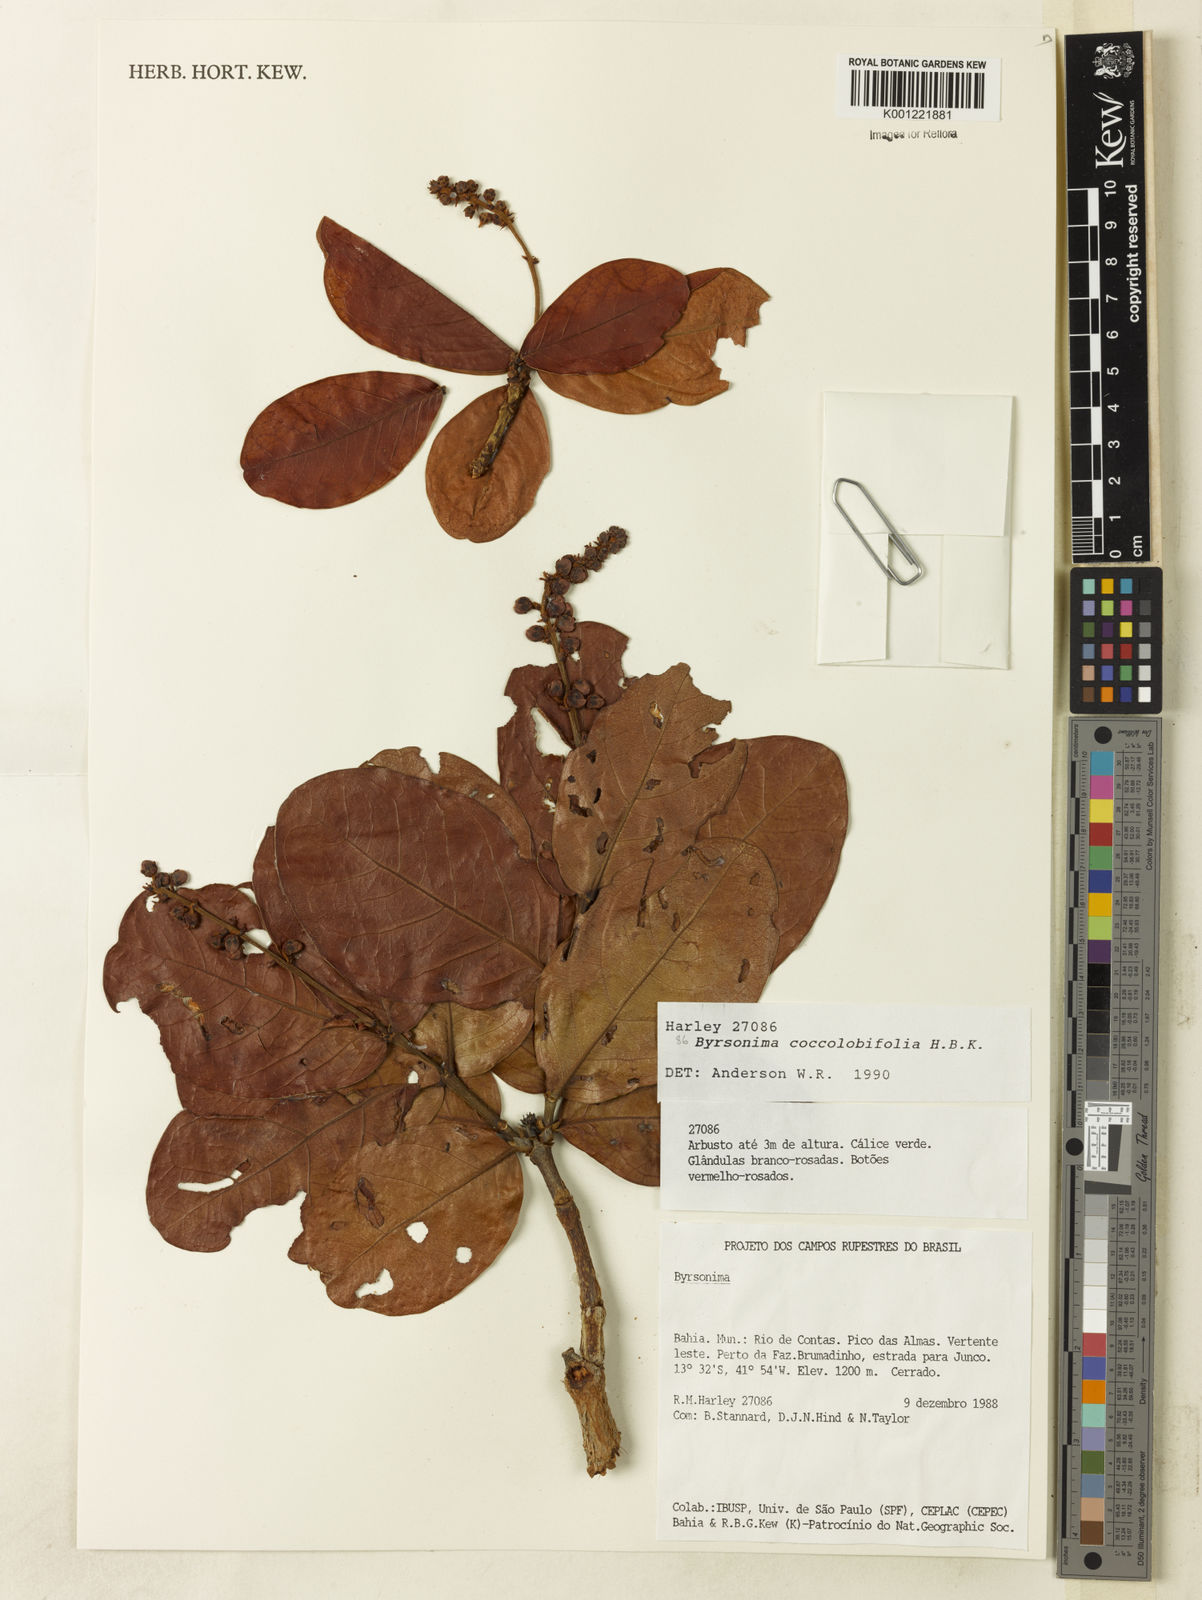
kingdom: Plantae
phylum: Tracheophyta
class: Magnoliopsida
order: Malpighiales
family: Malpighiaceae
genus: Byrsonima
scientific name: Byrsonima coccolobifolia
